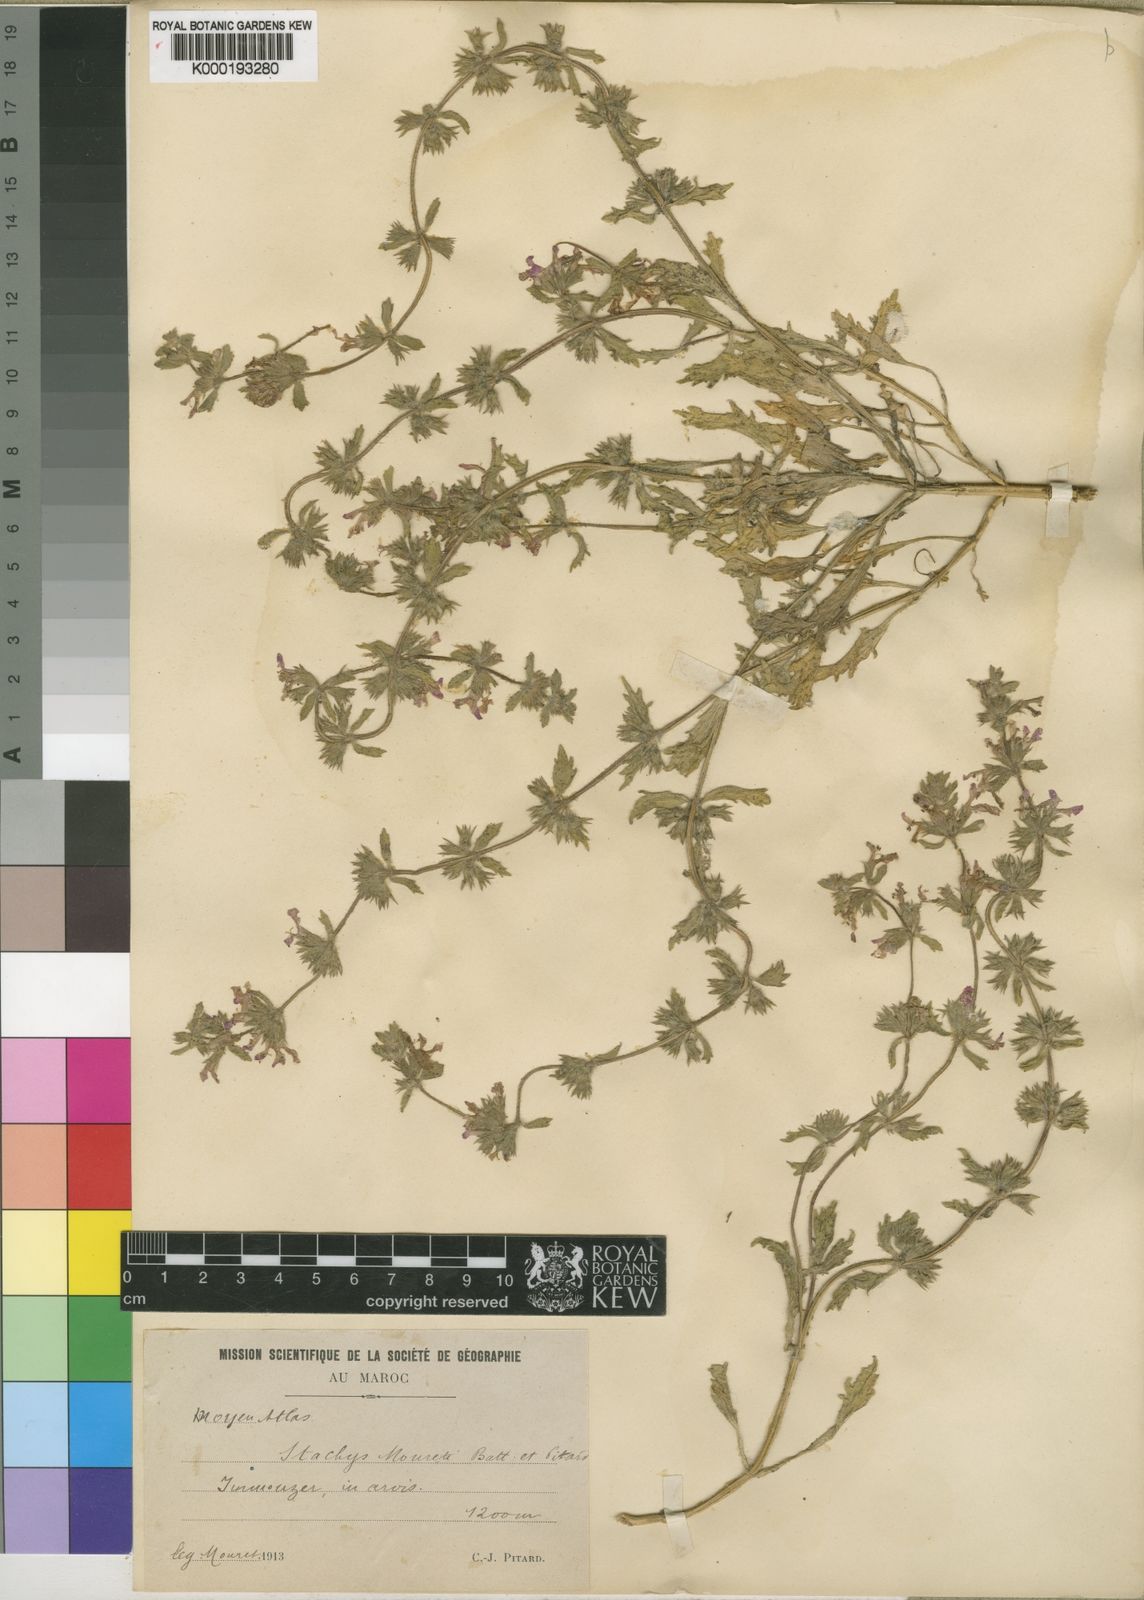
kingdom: Plantae
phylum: Tracheophyta
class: Magnoliopsida
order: Lamiales
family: Lamiaceae
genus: Stachys
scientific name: Stachys mouretii
